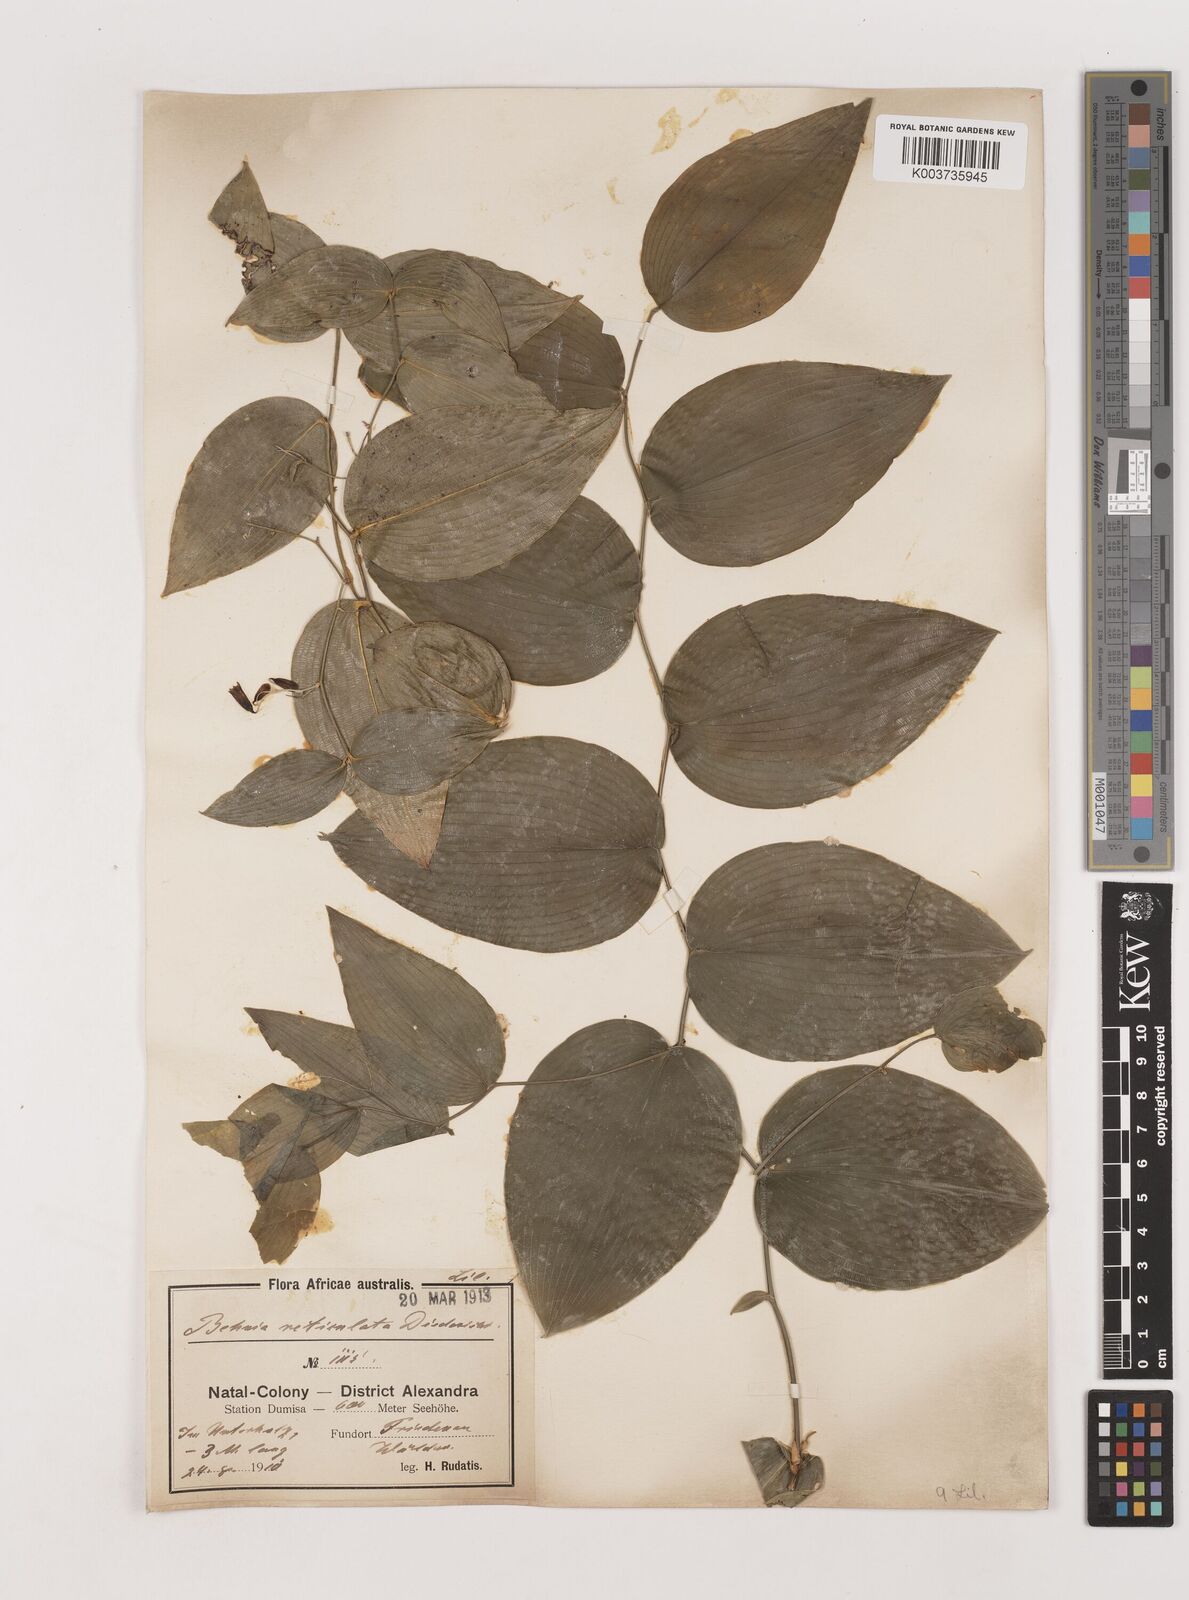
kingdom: Plantae
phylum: Tracheophyta
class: Liliopsida
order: Asparagales
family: Asparagaceae
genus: Behnia
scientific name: Behnia reticulata
